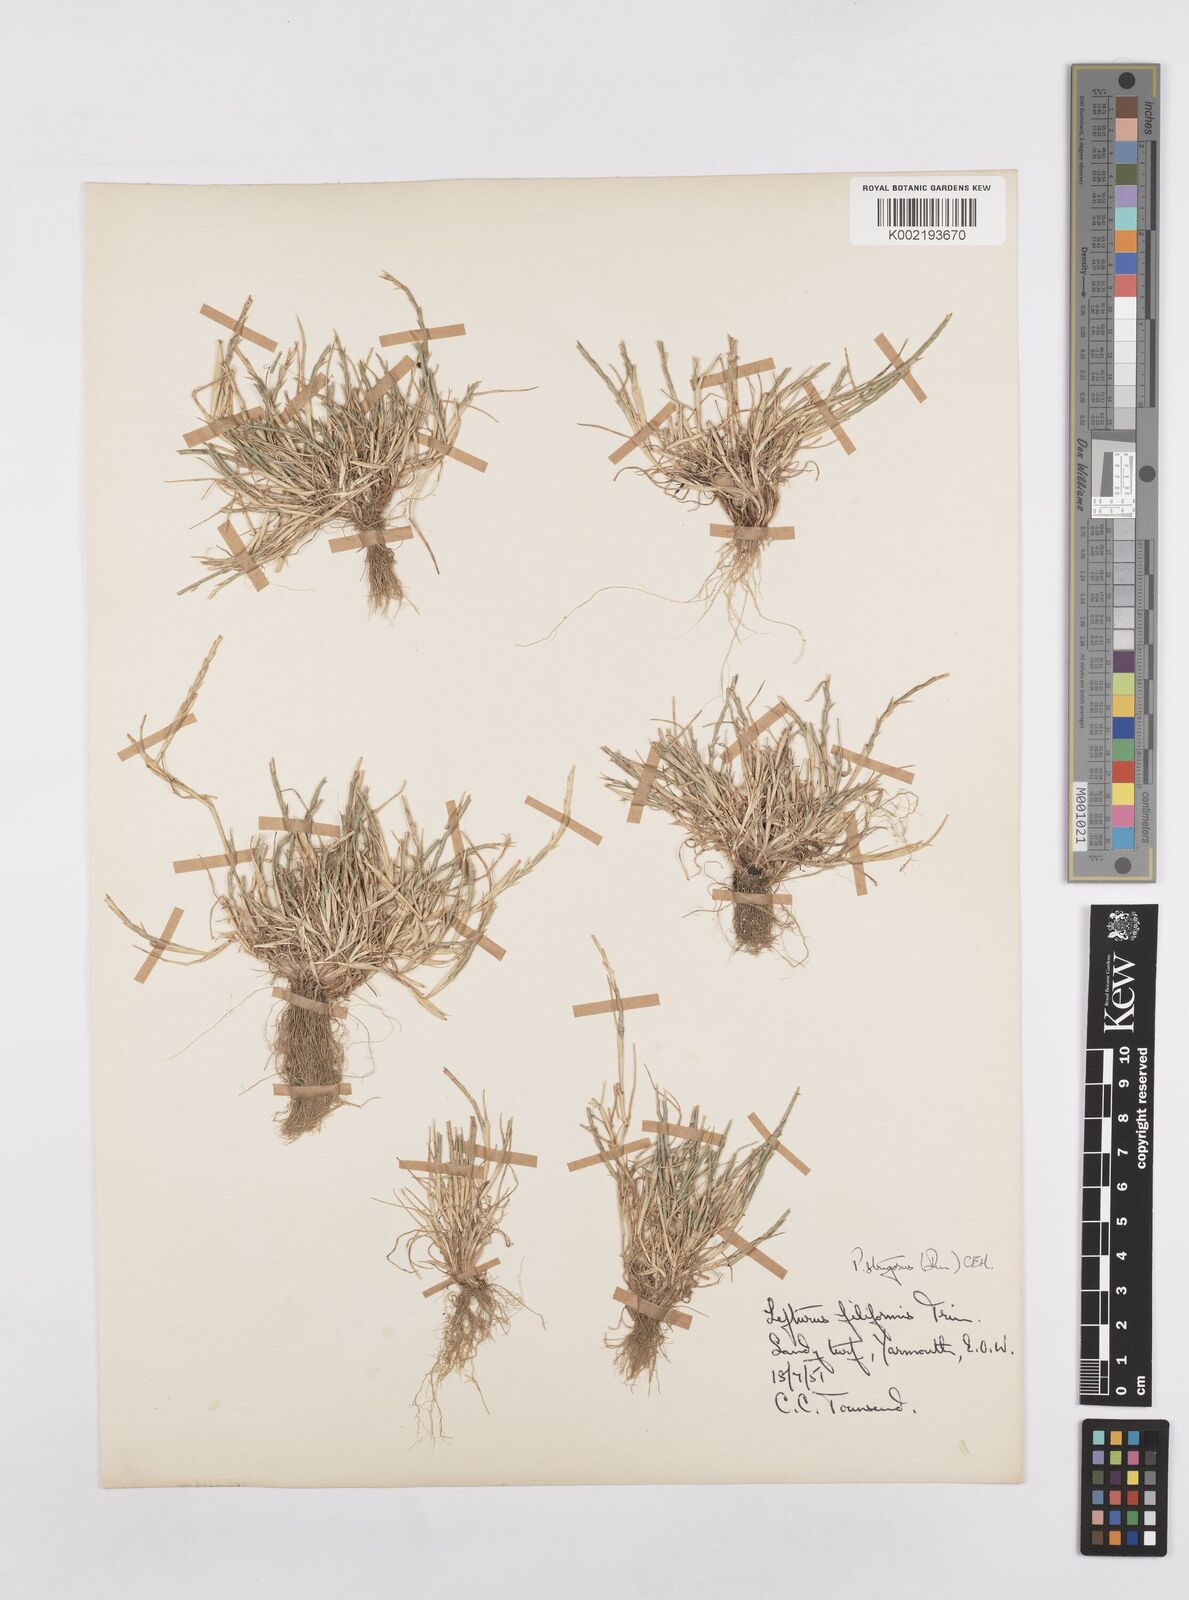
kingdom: Plantae
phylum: Tracheophyta
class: Liliopsida
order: Poales
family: Poaceae
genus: Parapholis
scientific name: Parapholis strigosa
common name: Hard-grass
